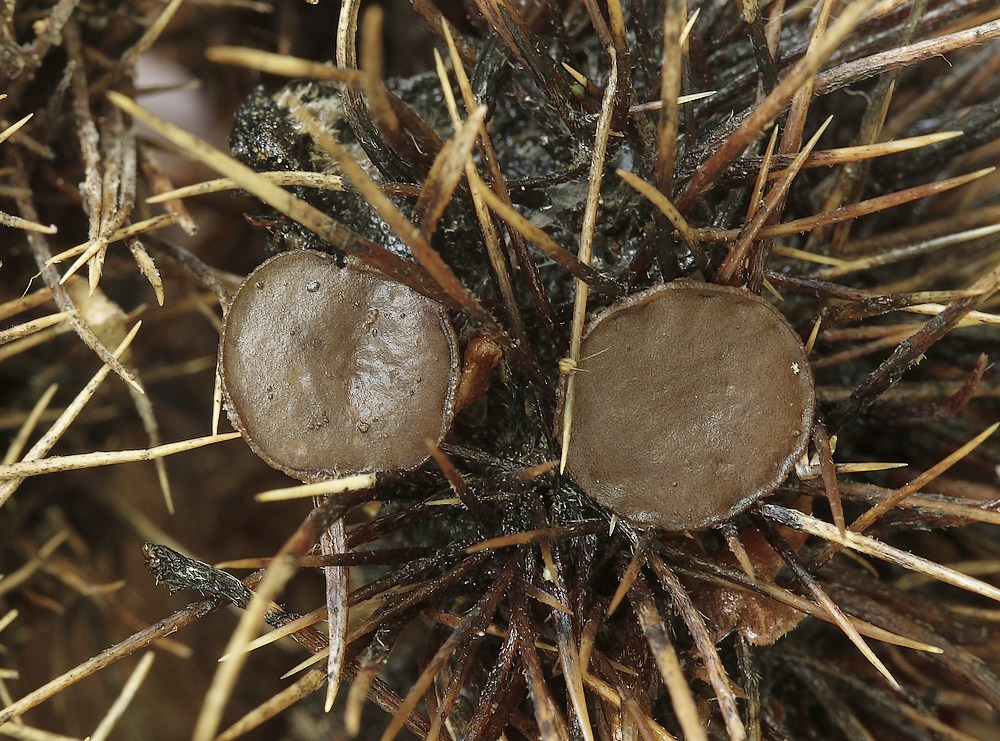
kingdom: Fungi
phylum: Ascomycota
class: Leotiomycetes
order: Helotiales
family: Rutstroemiaceae
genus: Lanzia
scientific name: Lanzia echinophila
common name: kastanie-brunskive
